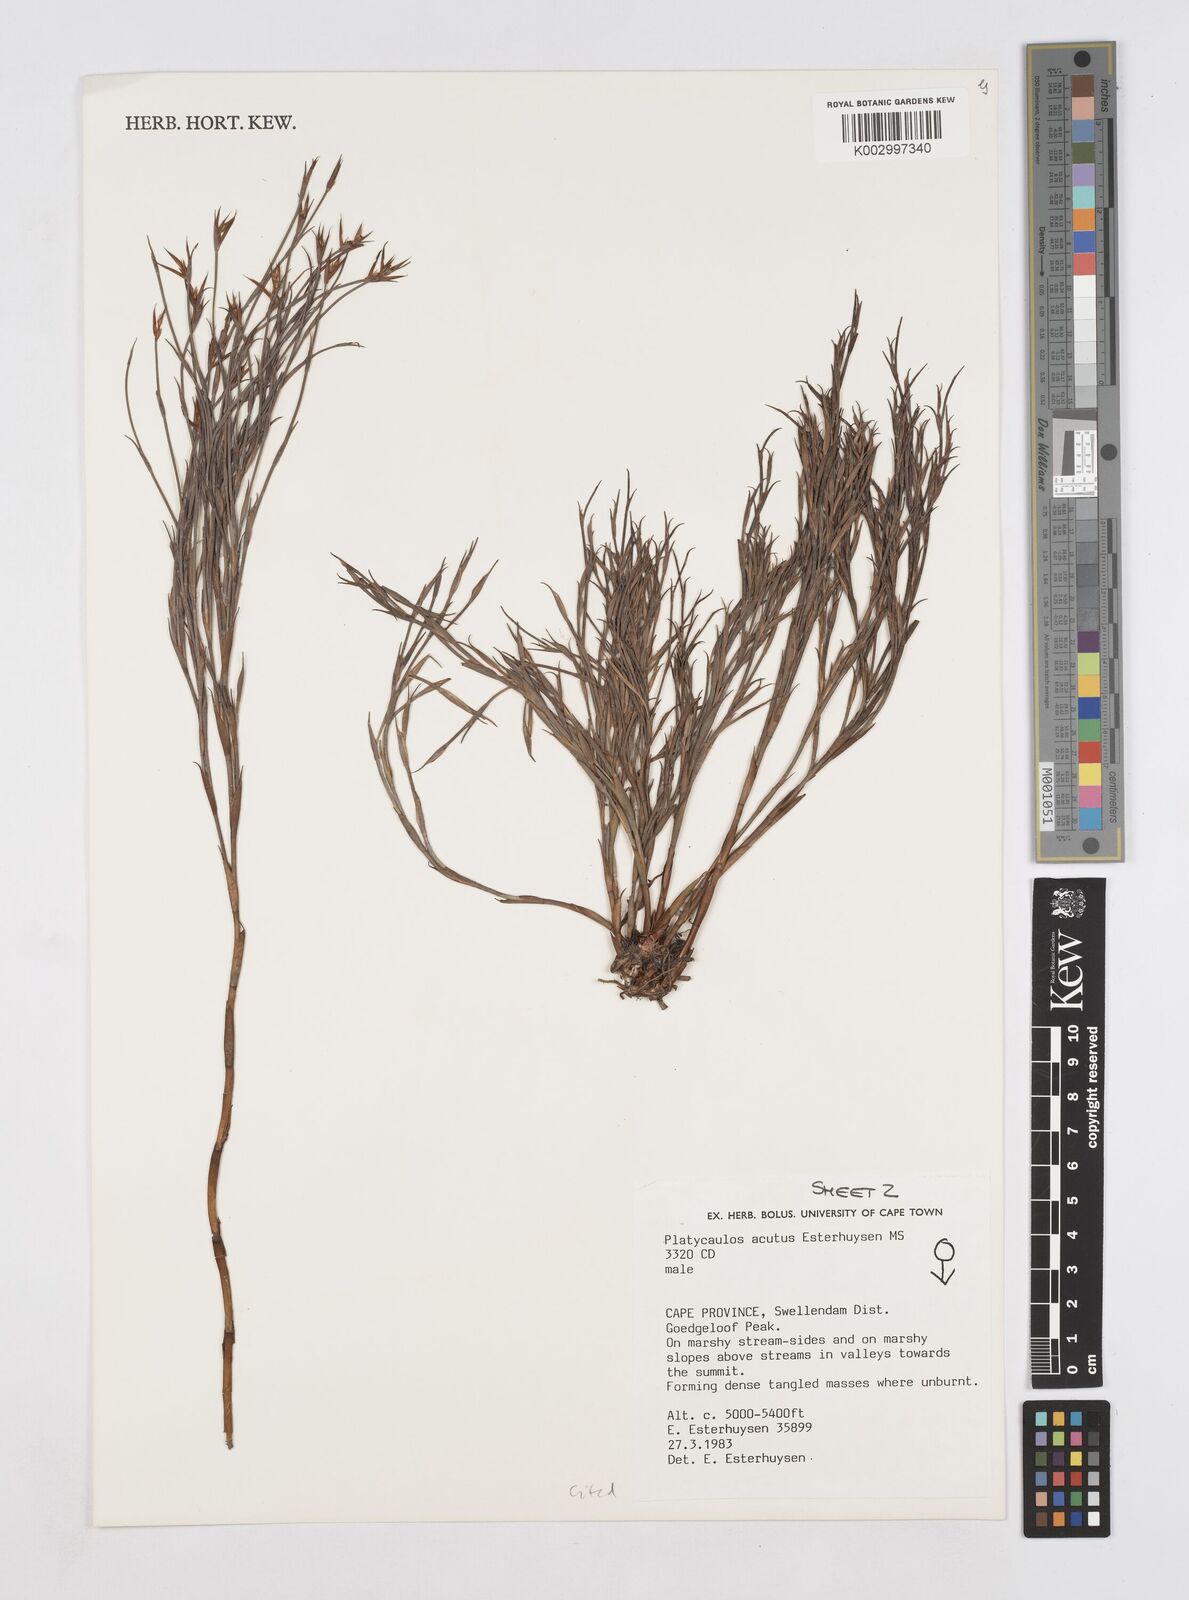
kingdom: Plantae
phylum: Tracheophyta
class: Liliopsida
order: Poales
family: Restionaceae
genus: Platycaulos
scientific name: Platycaulos acutus
